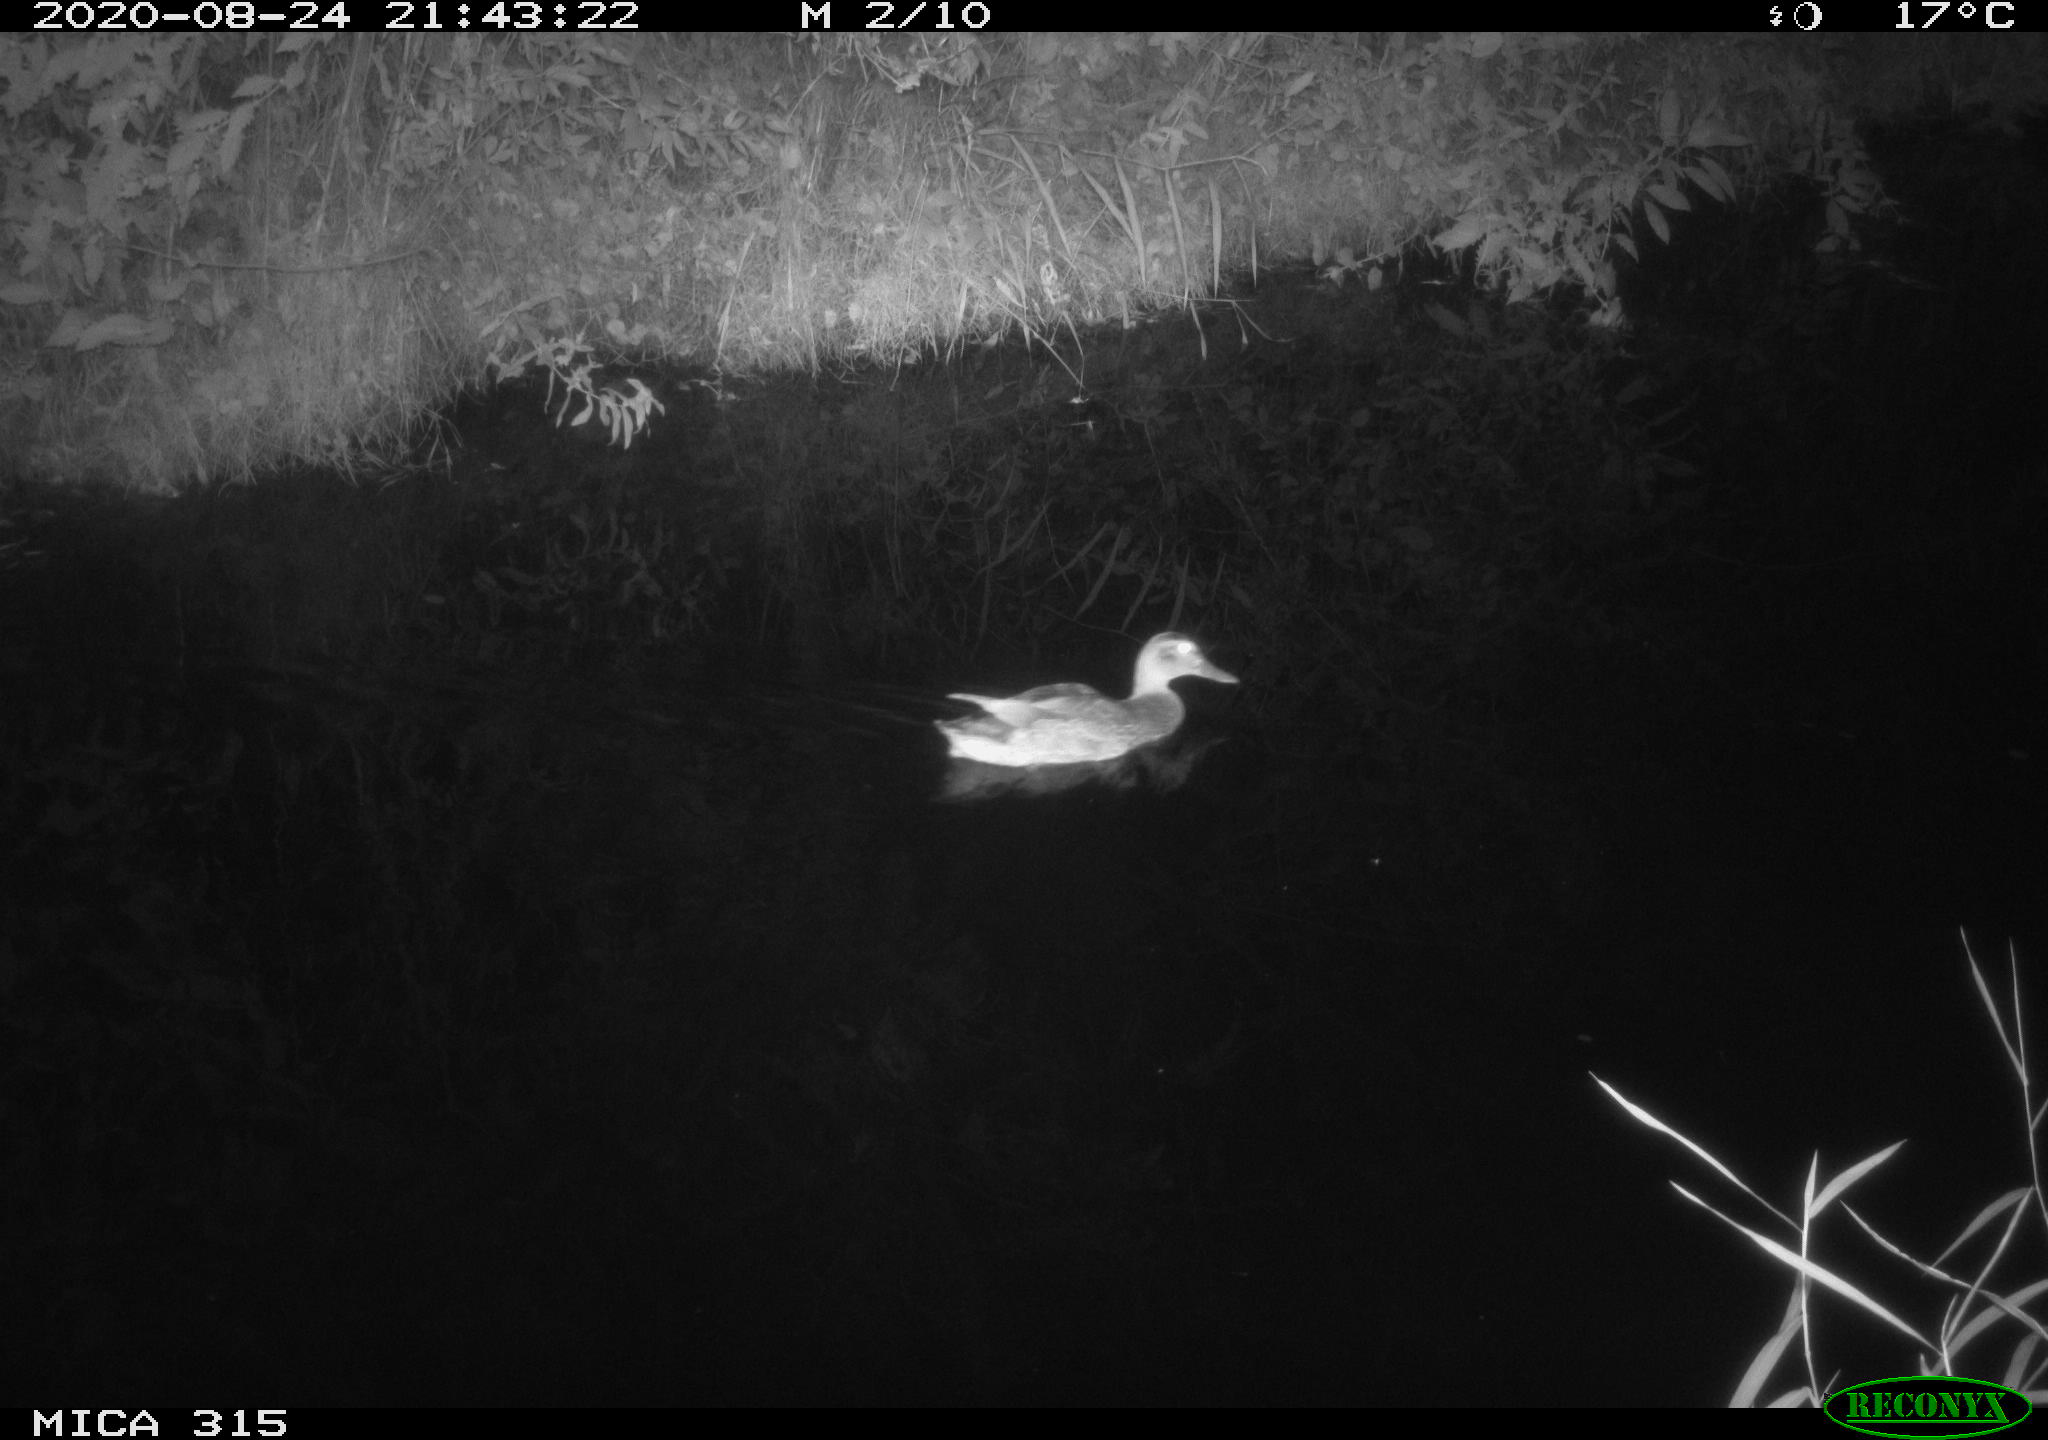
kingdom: Animalia
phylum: Chordata
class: Aves
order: Anseriformes
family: Anatidae
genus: Anas
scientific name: Anas platyrhynchos
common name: Mallard
